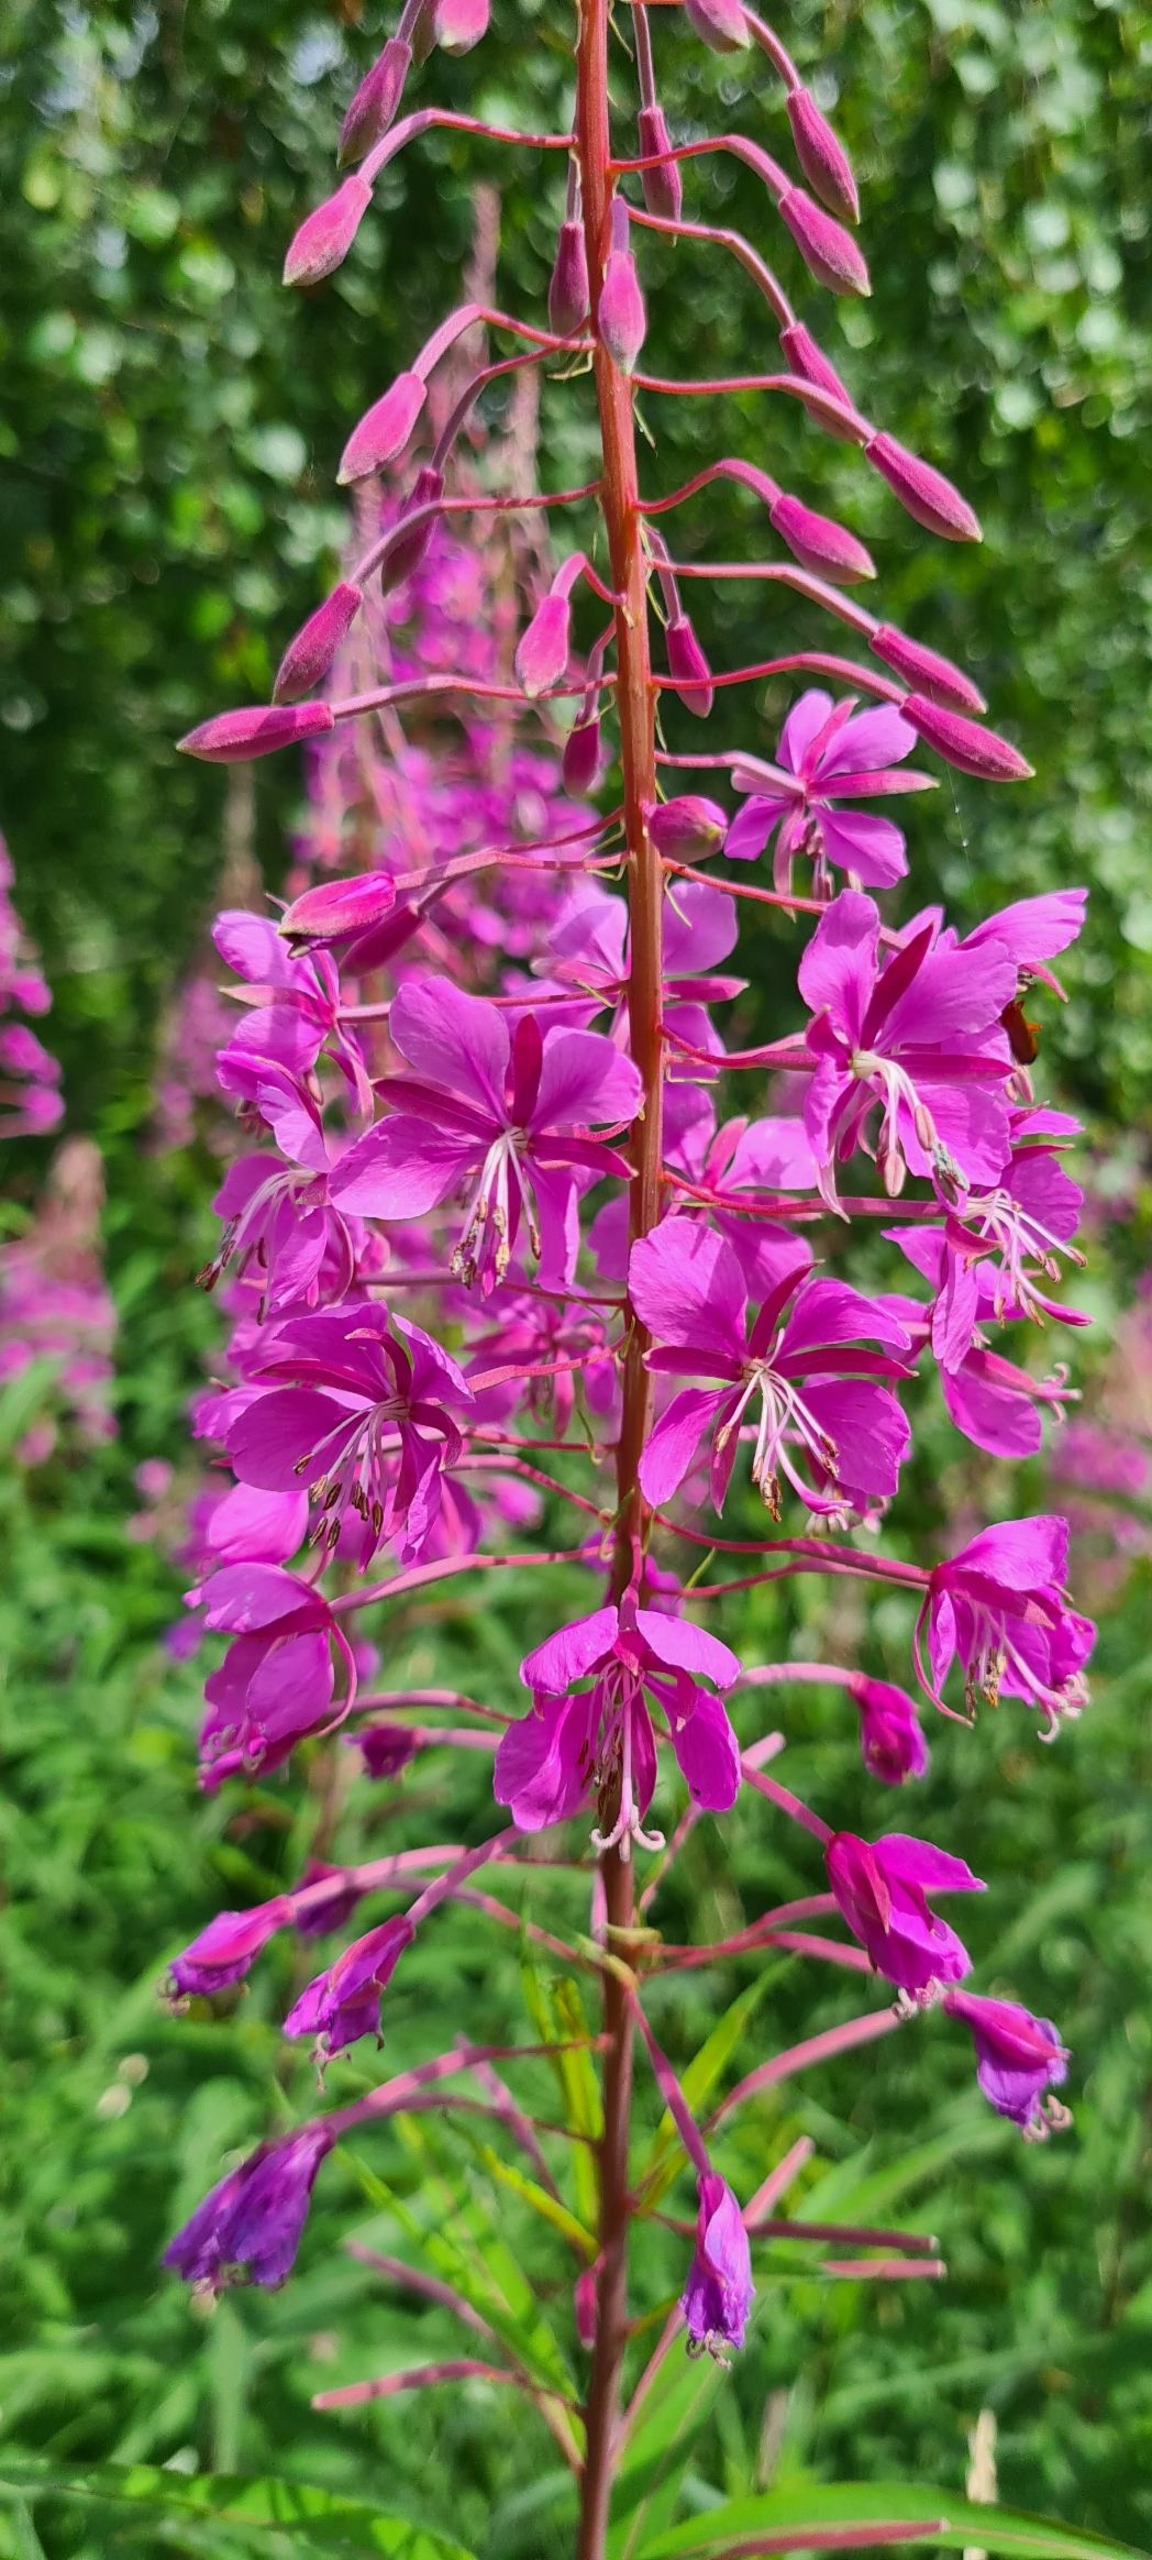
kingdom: Plantae
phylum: Tracheophyta
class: Magnoliopsida
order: Myrtales
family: Onagraceae
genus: Chamaenerion
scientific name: Chamaenerion angustifolium
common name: Gederams
